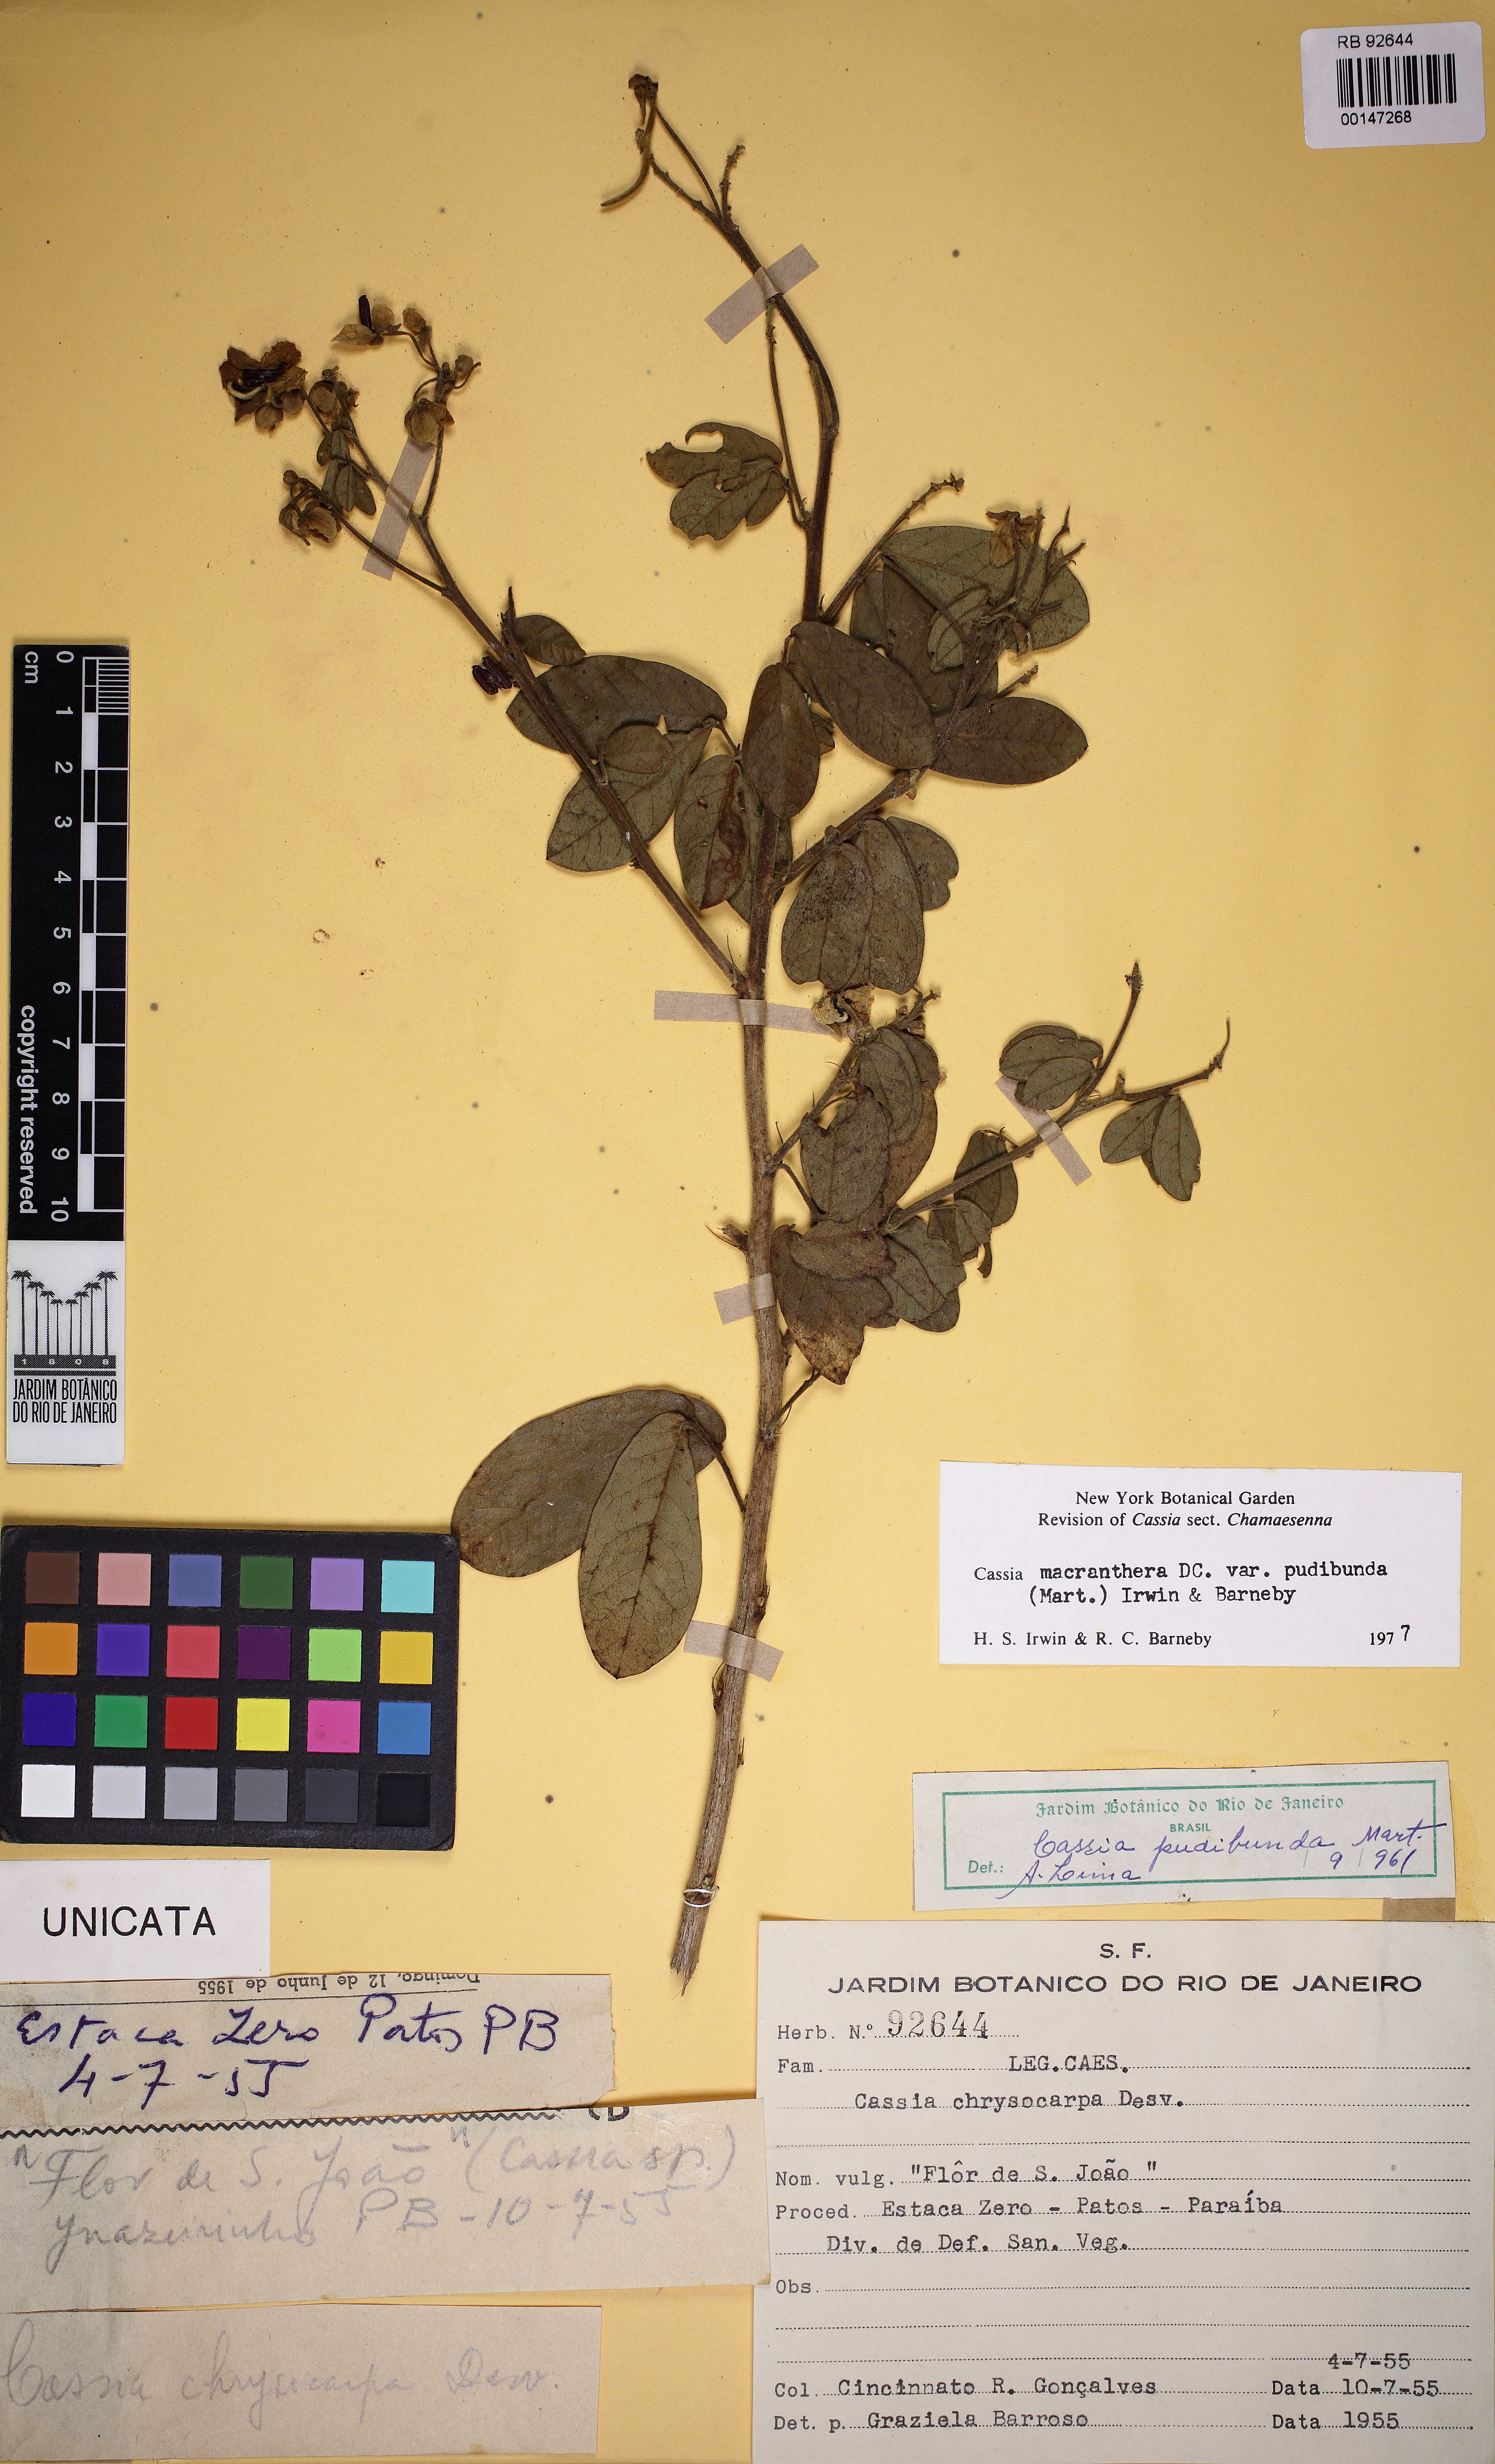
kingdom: Plantae
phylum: Tracheophyta
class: Magnoliopsida
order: Fabales
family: Fabaceae
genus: Senna
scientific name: Senna macranthera
